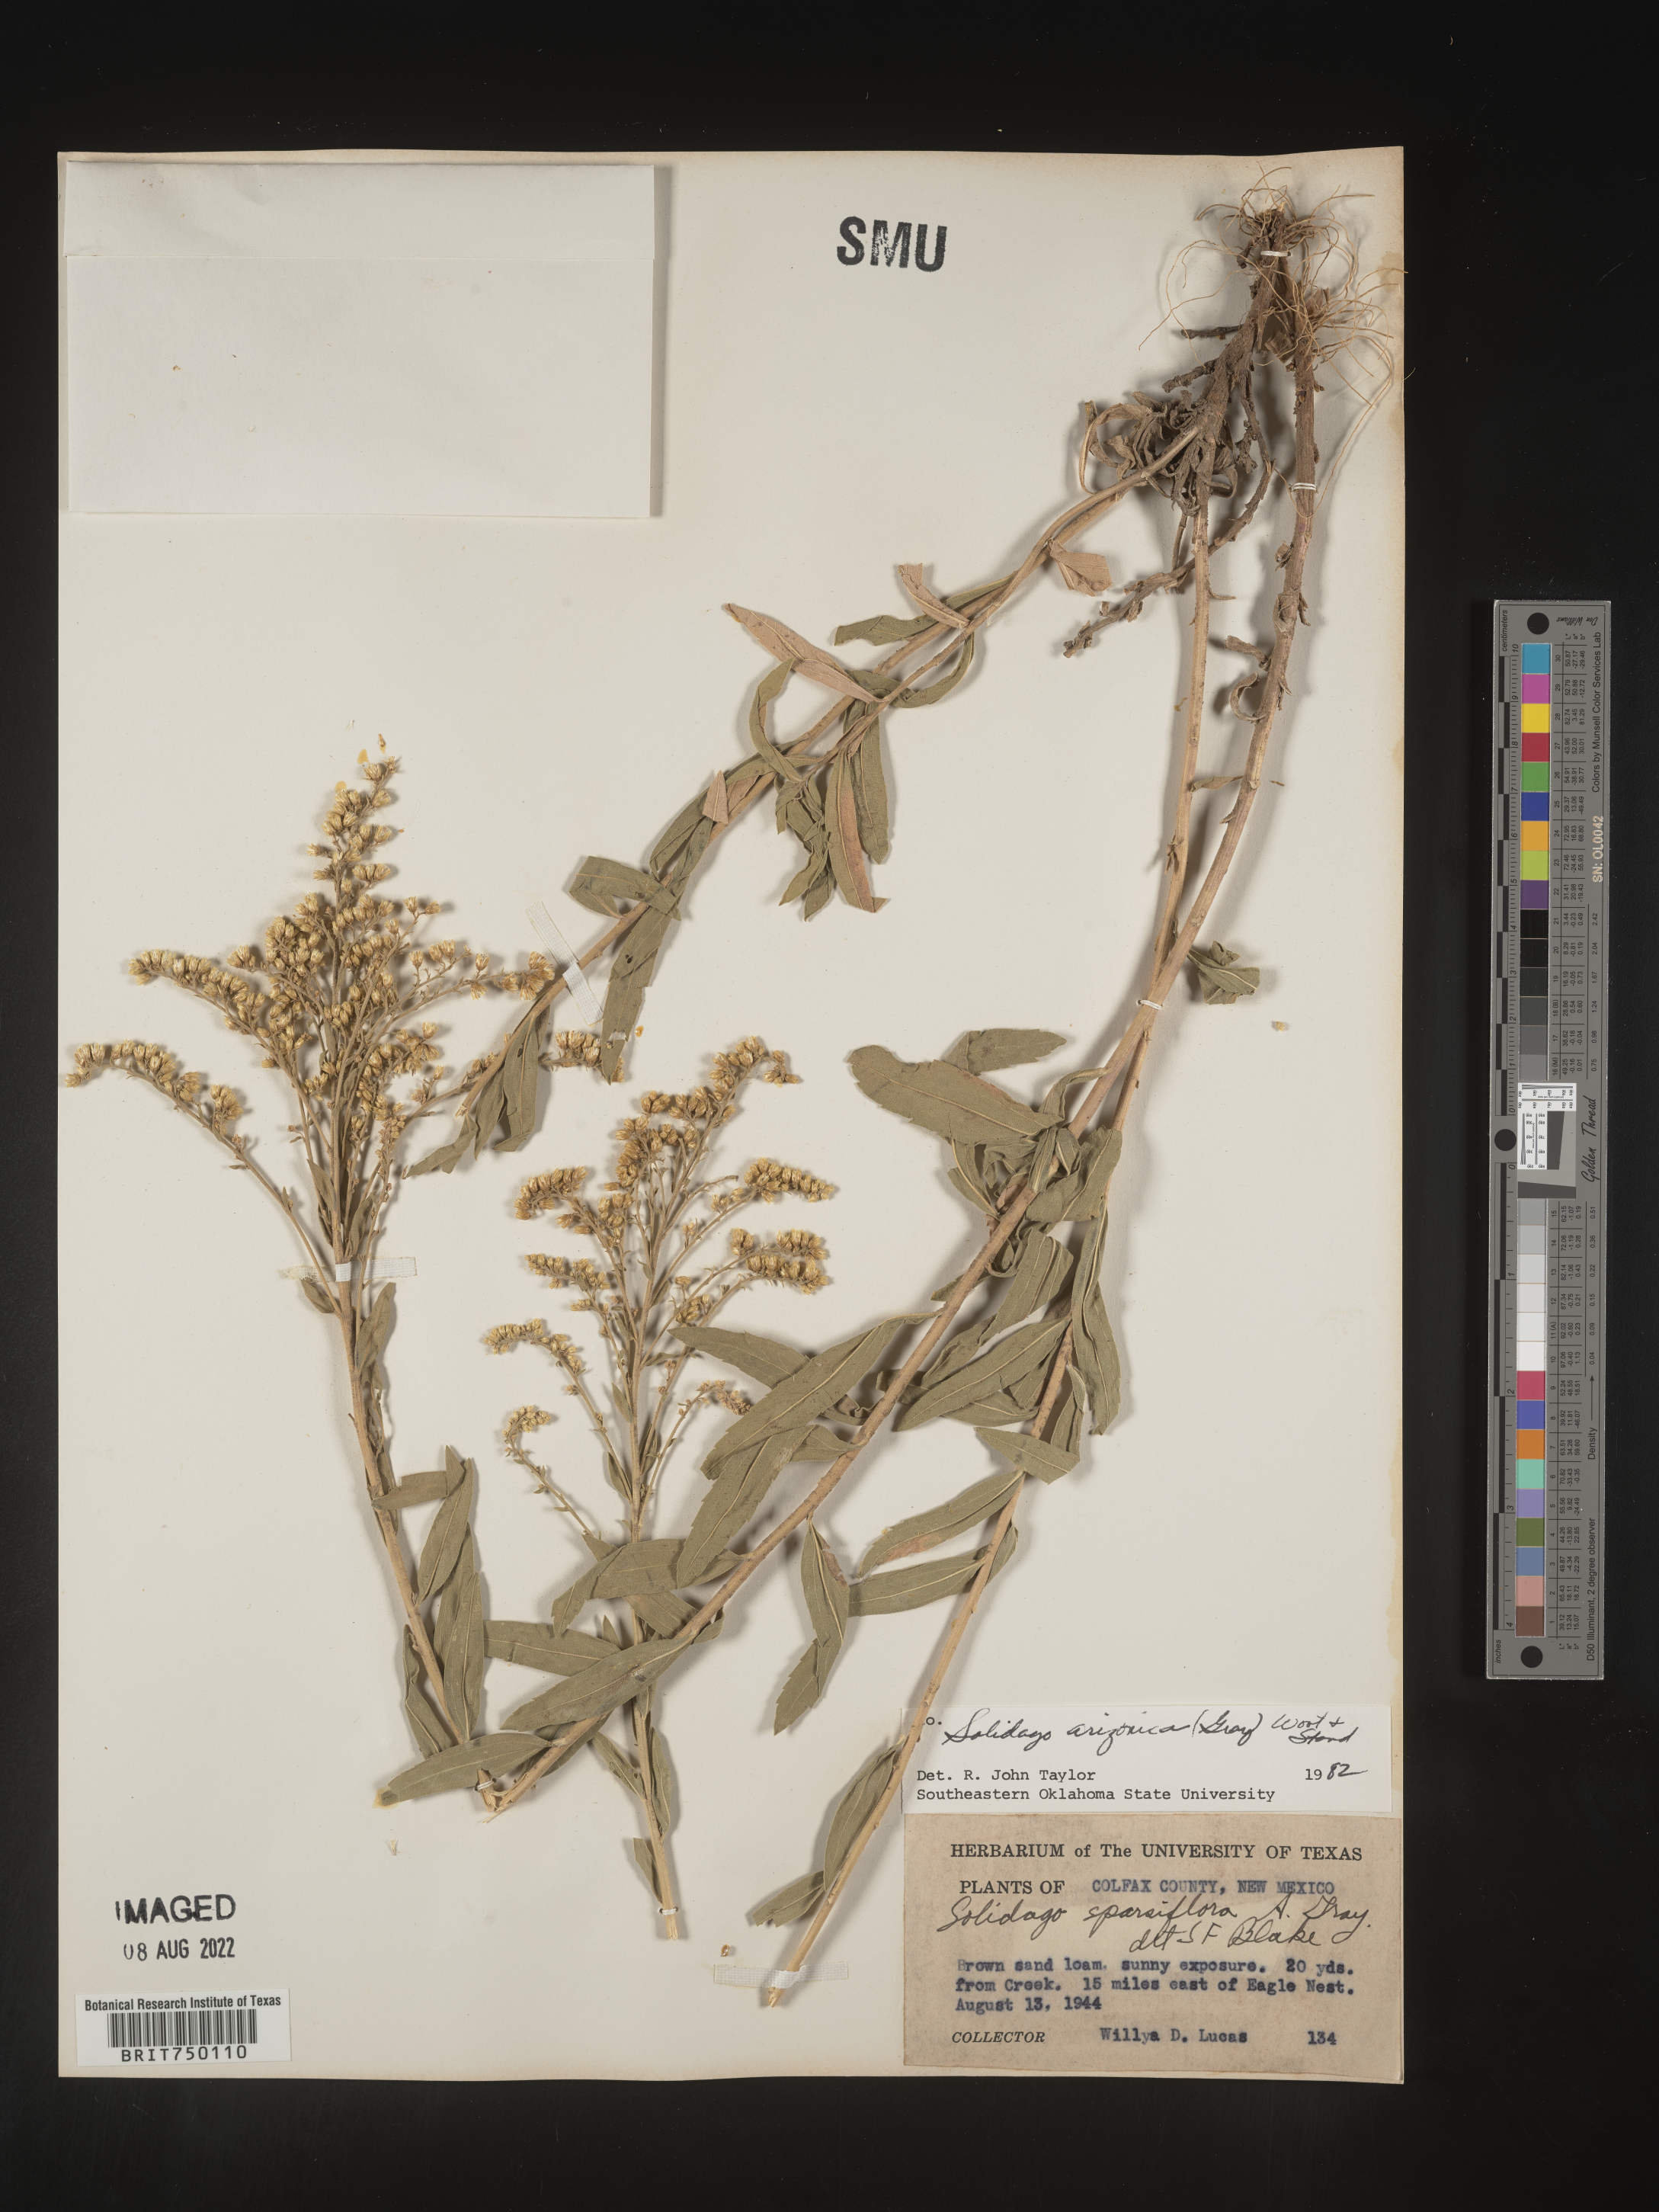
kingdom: Plantae
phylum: Tracheophyta
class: Magnoliopsida
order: Asterales
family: Asteraceae
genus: Solidago
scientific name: Solidago velutina
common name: Three-nerve goldenrod
